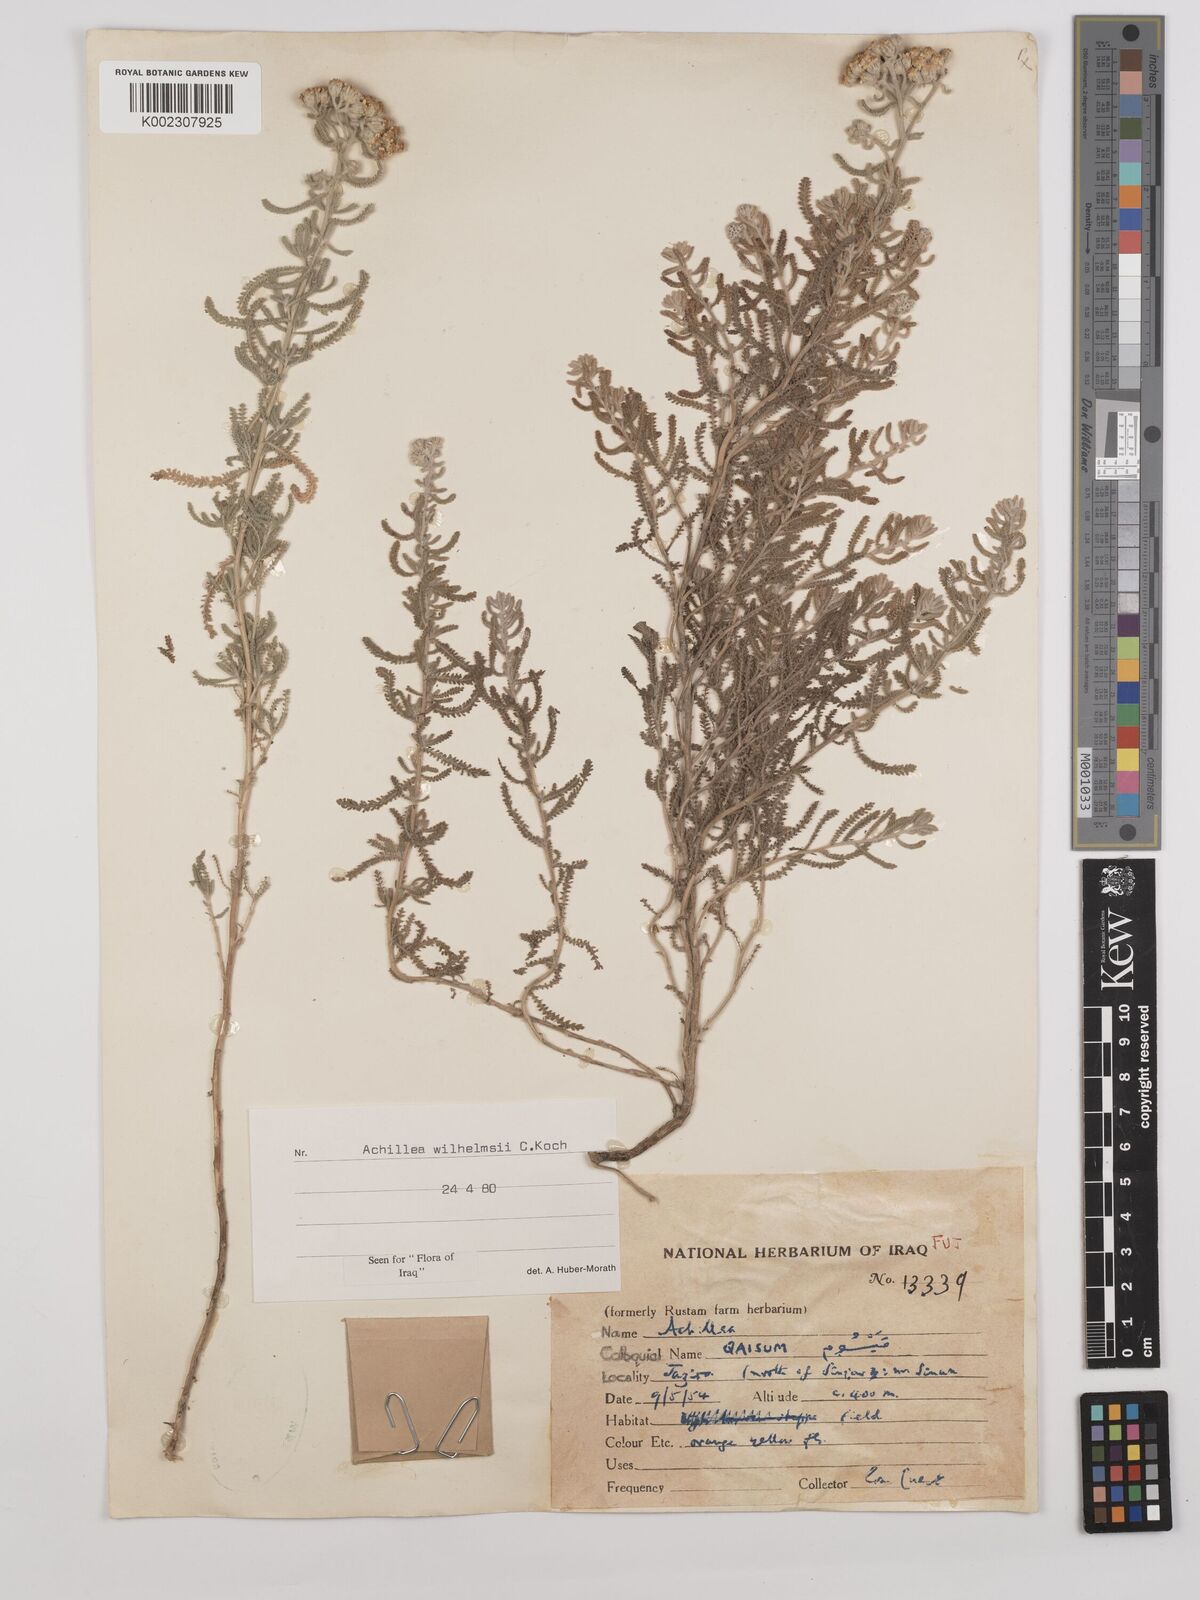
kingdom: Plantae
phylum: Tracheophyta
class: Magnoliopsida
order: Asterales
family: Asteraceae
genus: Achillea
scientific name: Achillea wilhelmsii
